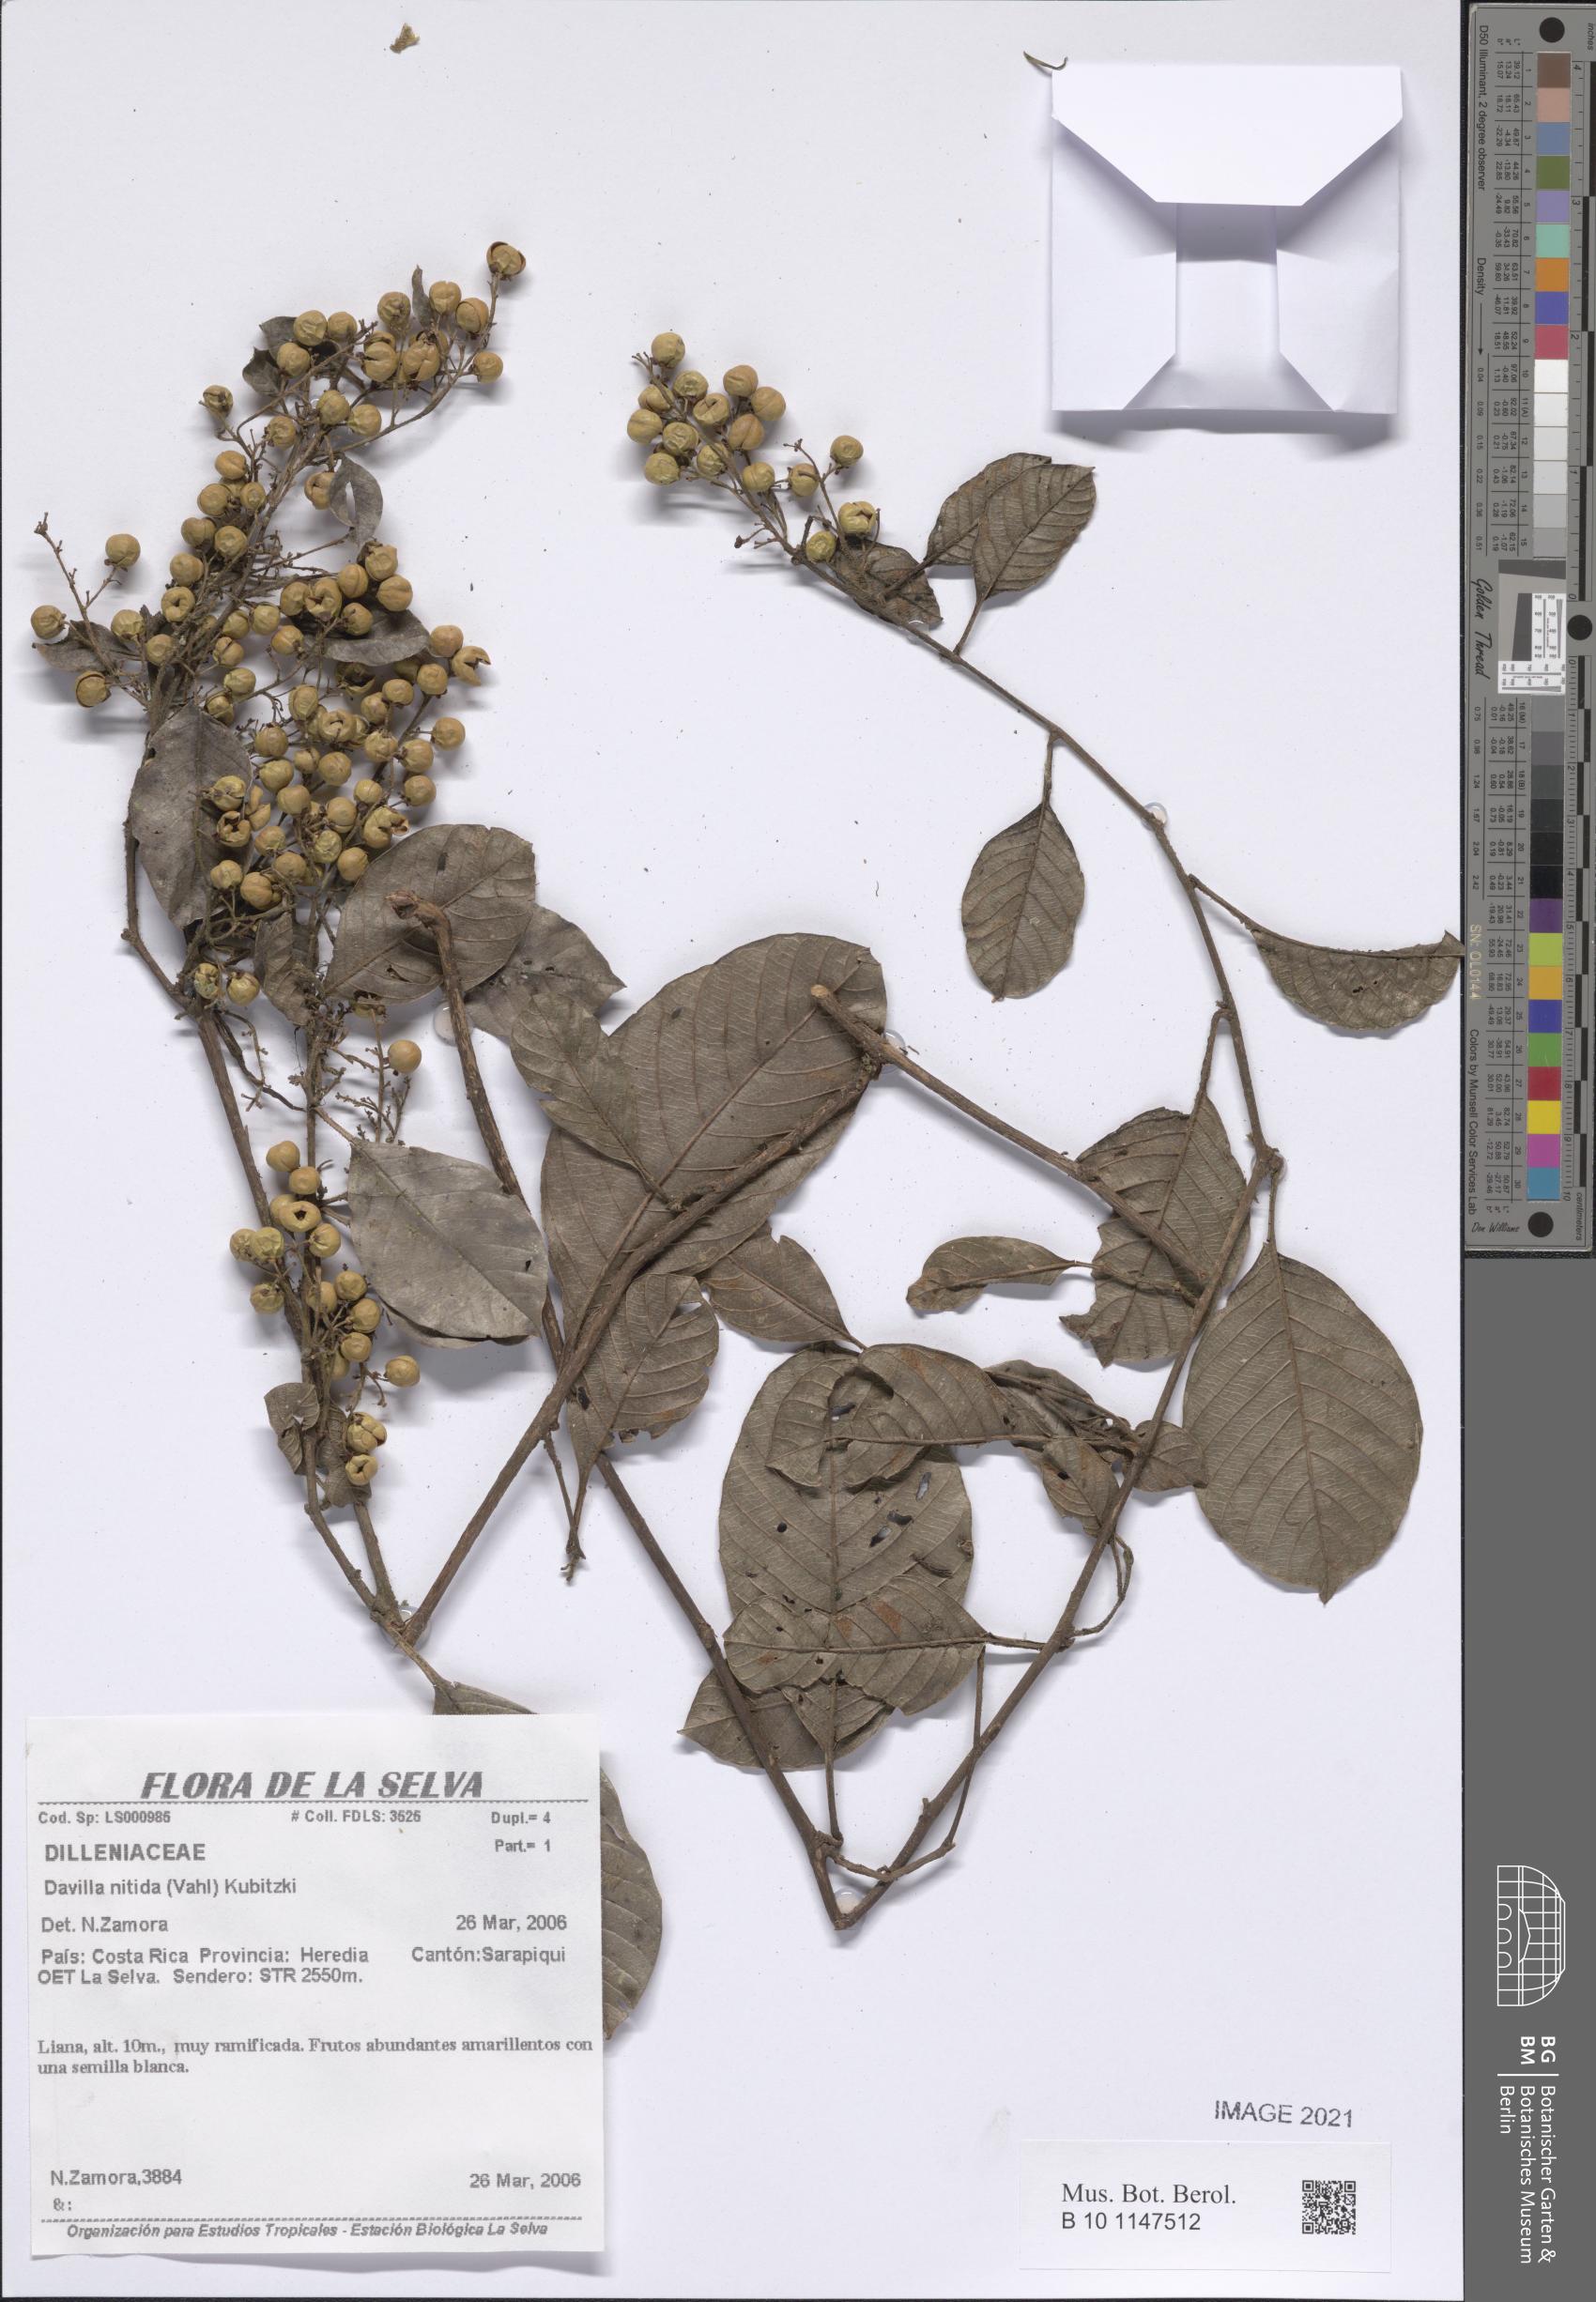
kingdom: Plantae
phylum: Tracheophyta
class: Magnoliopsida
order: Dilleniales
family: Dilleniaceae
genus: Davilla
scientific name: Davilla nitida
